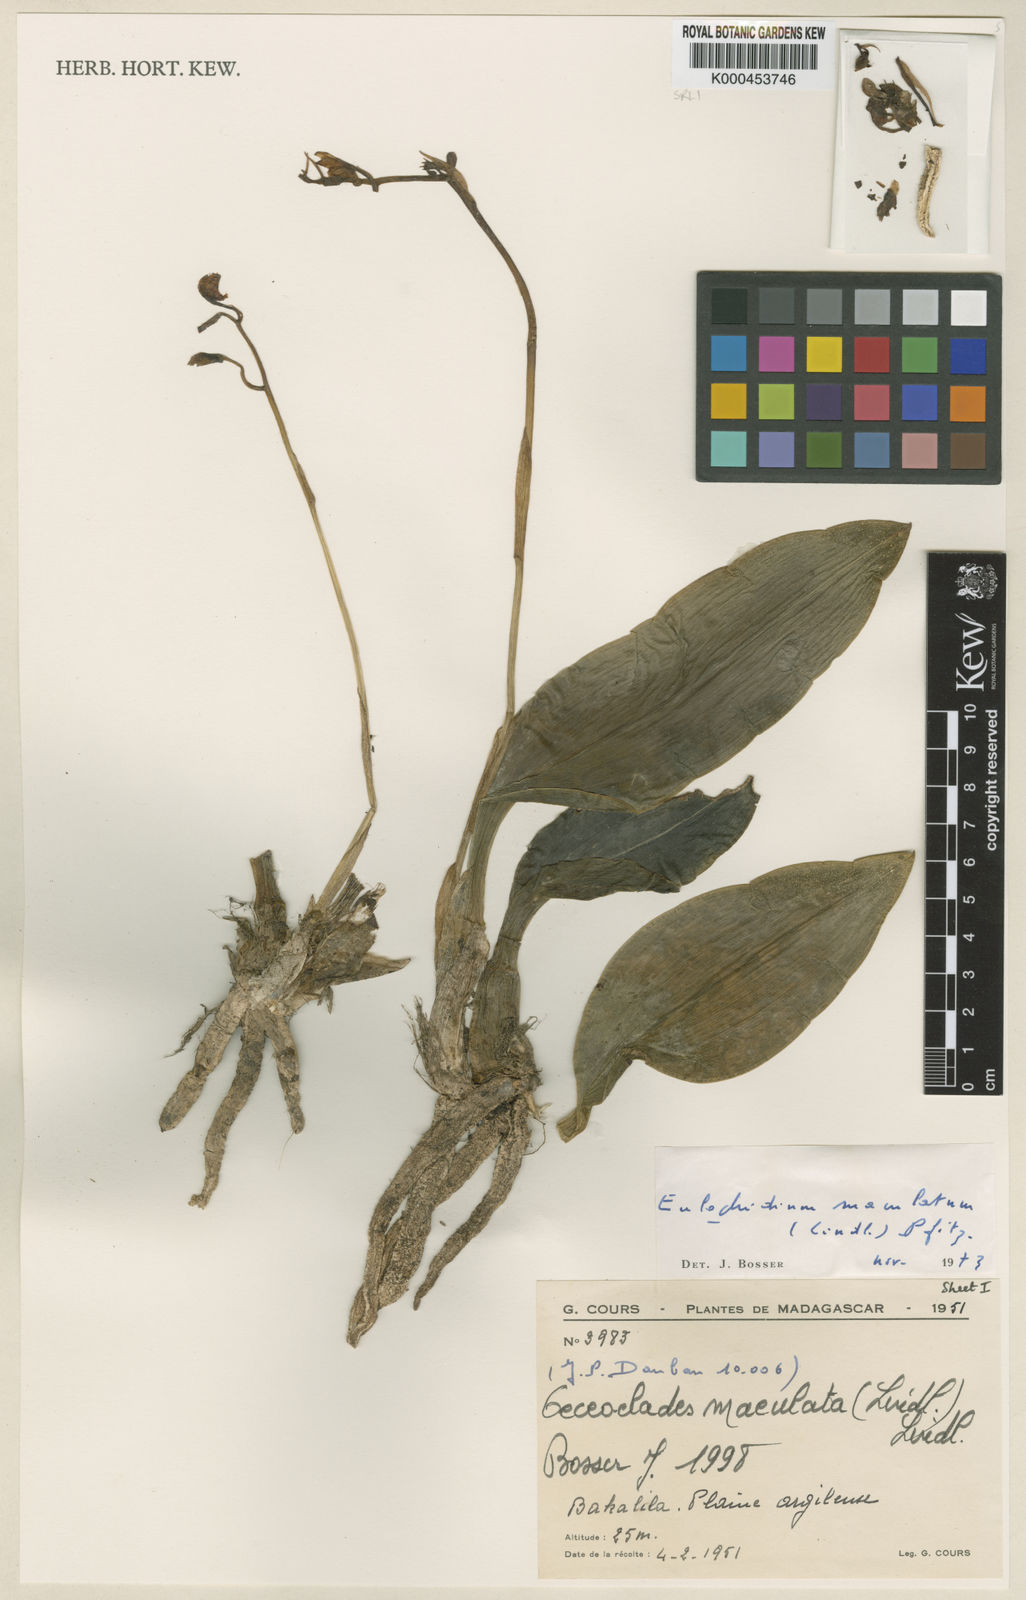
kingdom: Plantae
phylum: Tracheophyta
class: Liliopsida
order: Asparagales
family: Orchidaceae
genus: Eulophia
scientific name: Eulophia maculata
